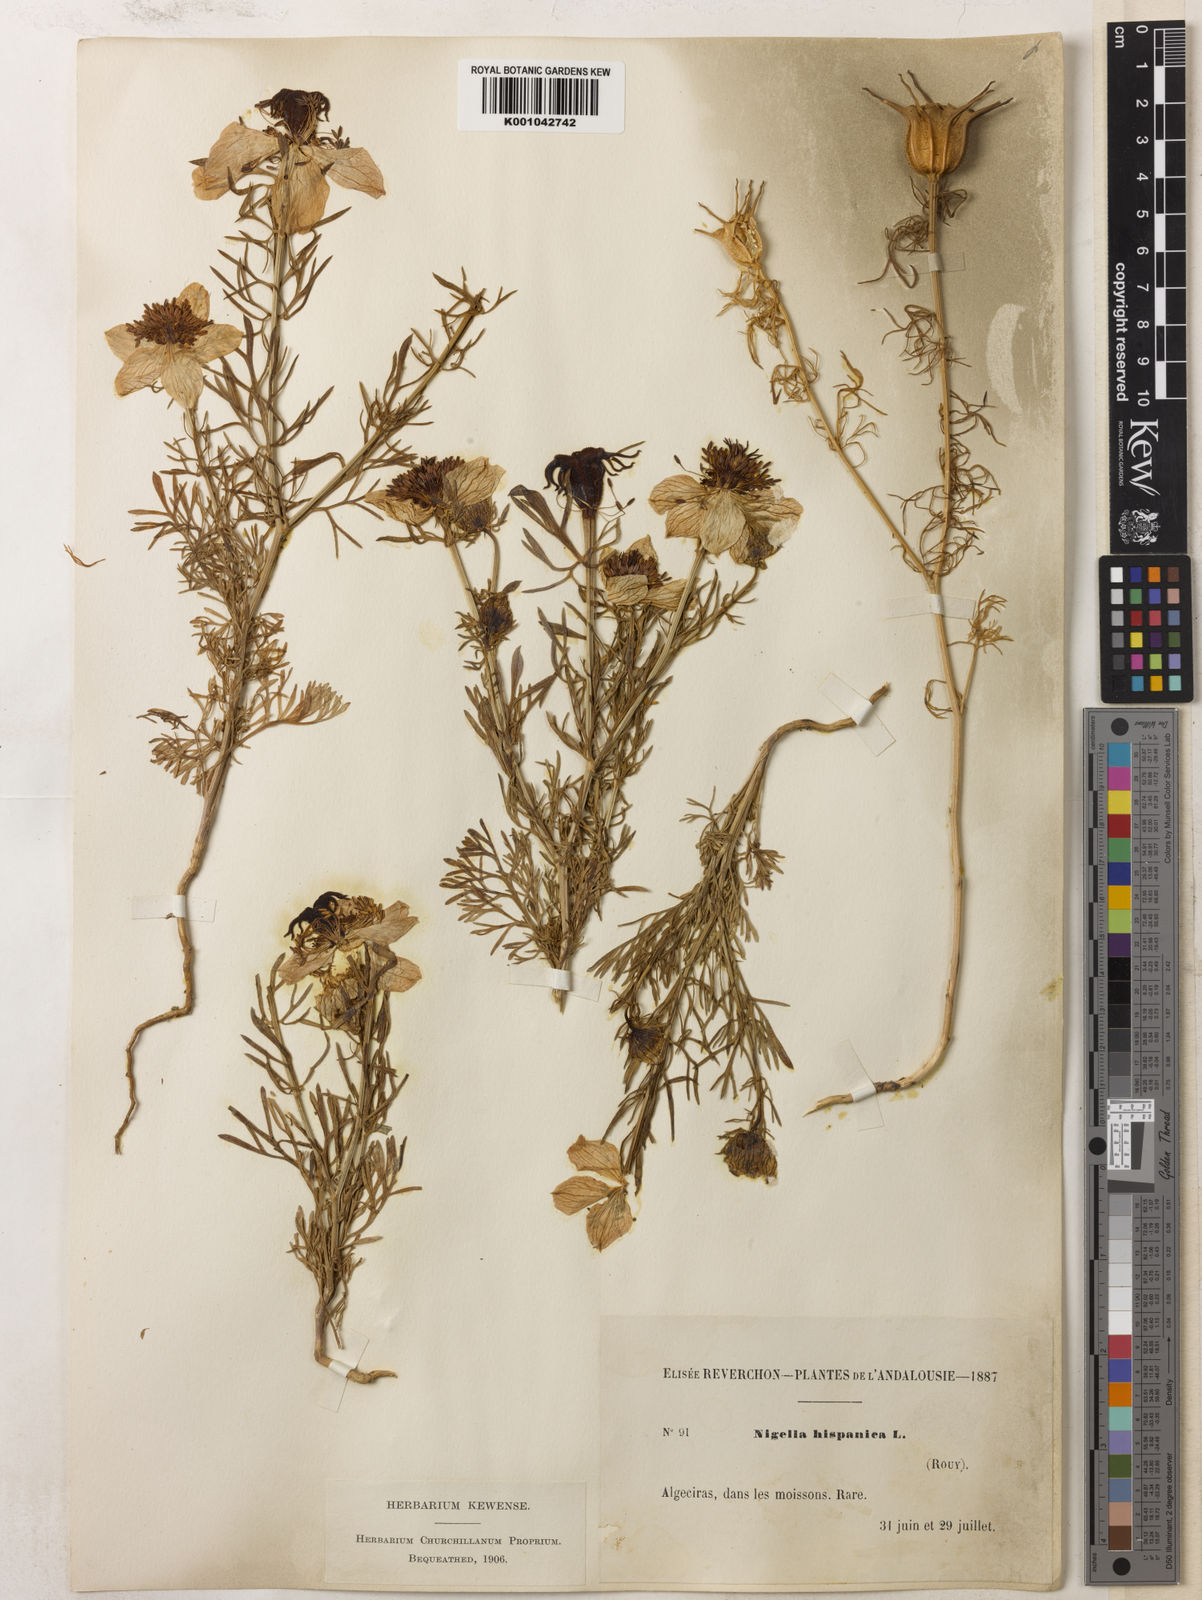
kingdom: Plantae
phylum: Tracheophyta
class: Magnoliopsida
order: Ranunculales
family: Ranunculaceae
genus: Nigella
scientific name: Nigella hispanica
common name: Fennel-flower
